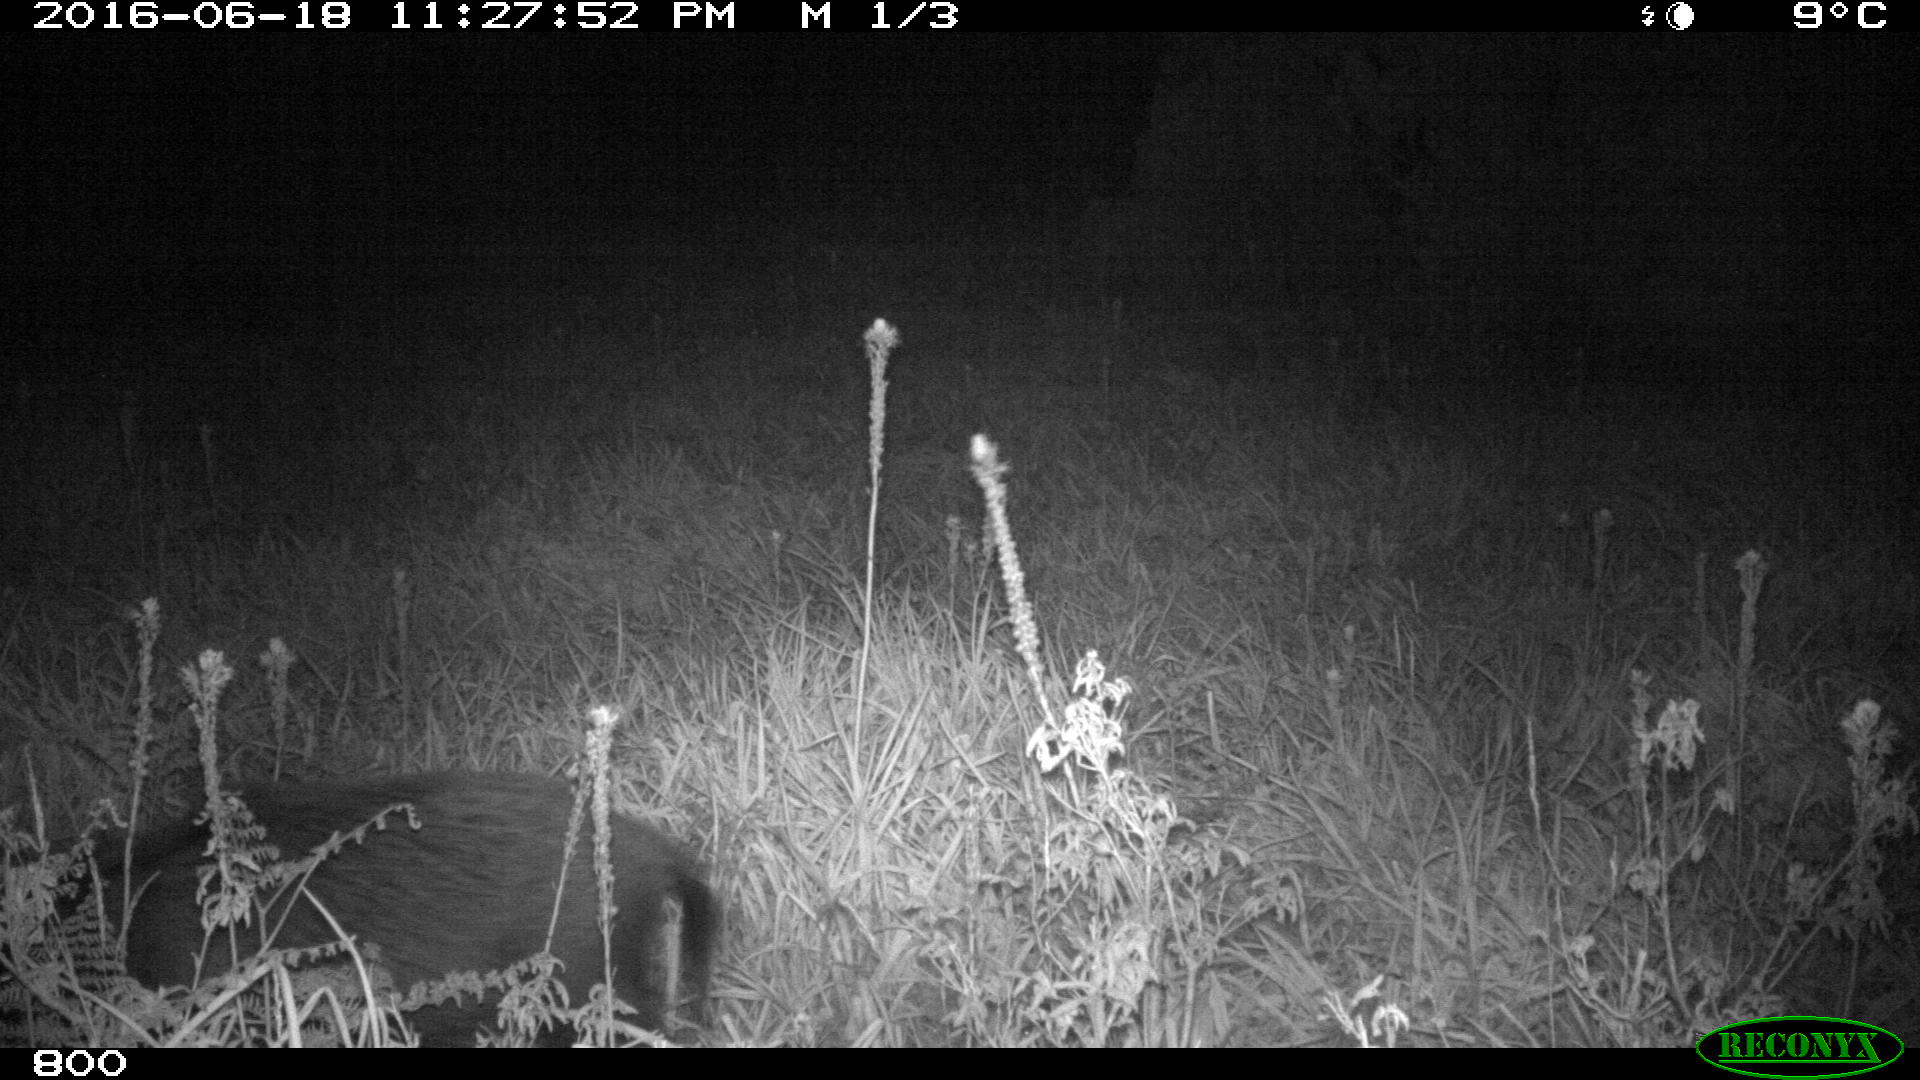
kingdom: Animalia
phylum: Chordata
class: Mammalia
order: Artiodactyla
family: Suidae
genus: Sus
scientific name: Sus scrofa
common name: Wild boar
